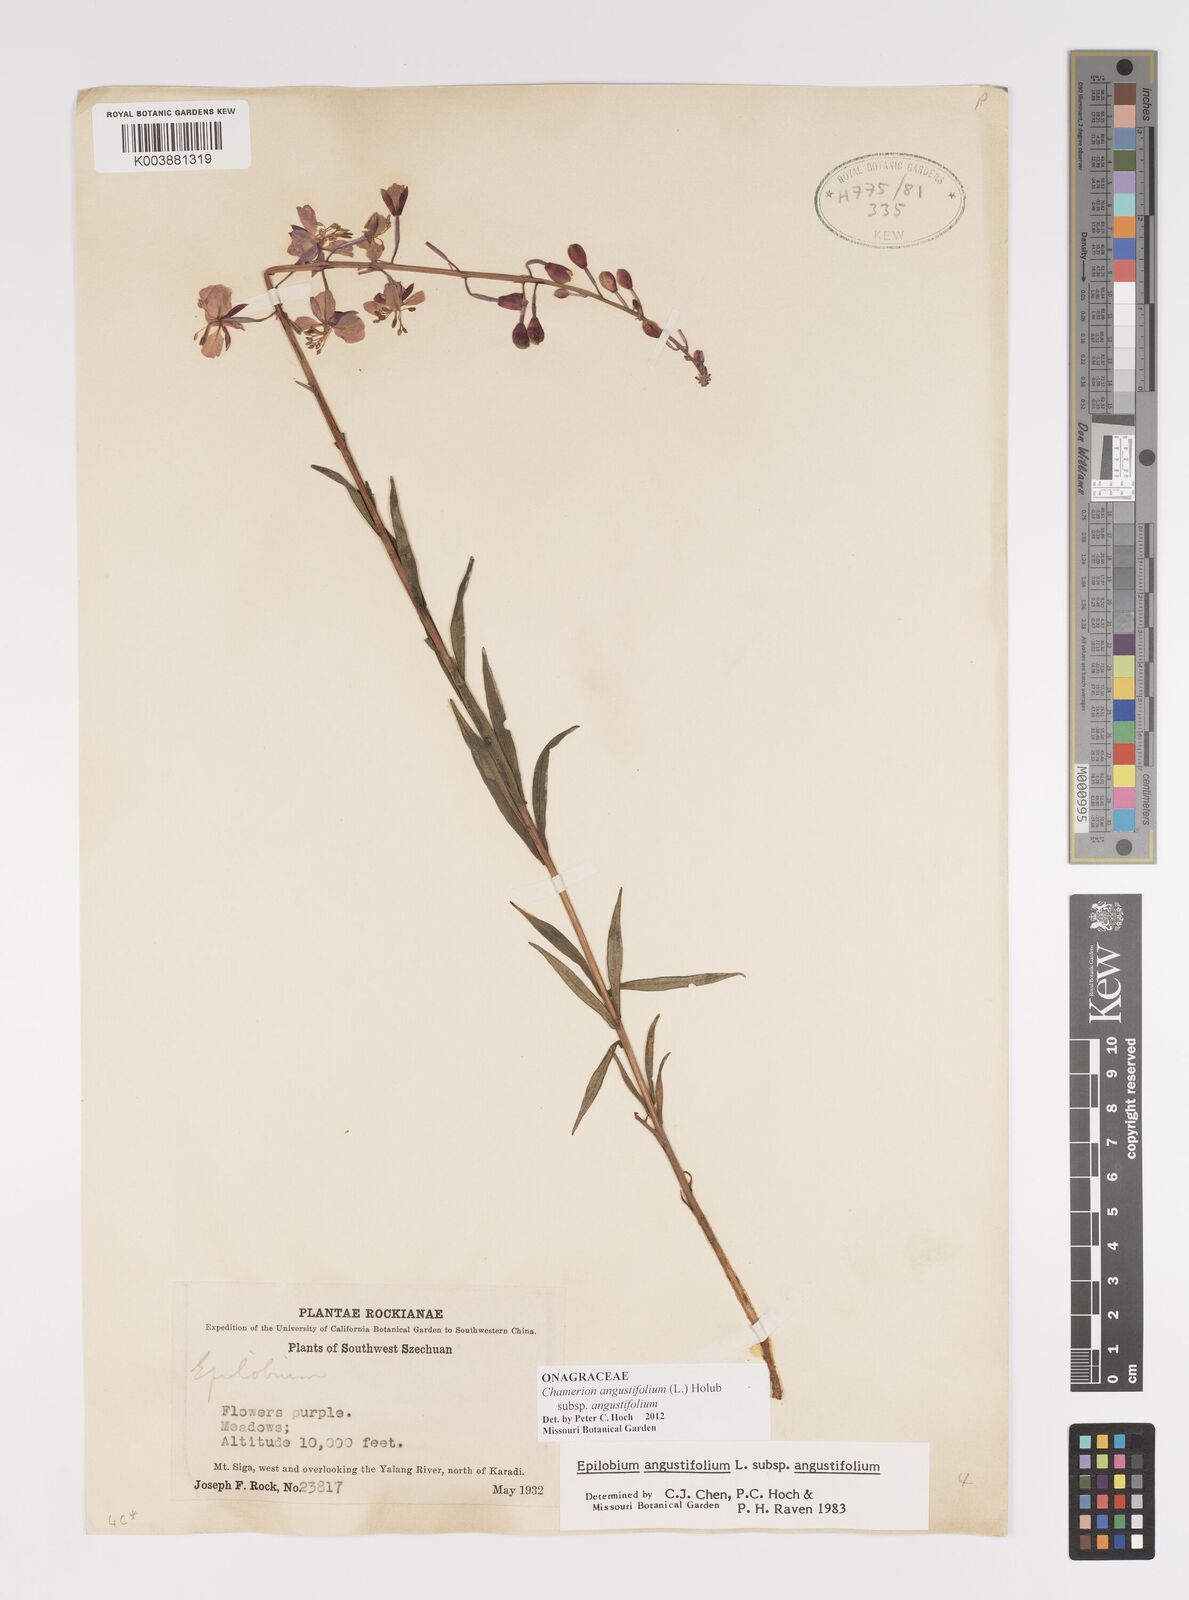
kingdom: Plantae
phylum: Tracheophyta
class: Magnoliopsida
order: Myrtales
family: Onagraceae
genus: Chamaenerion
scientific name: Chamaenerion angustifolium
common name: Fireweed
